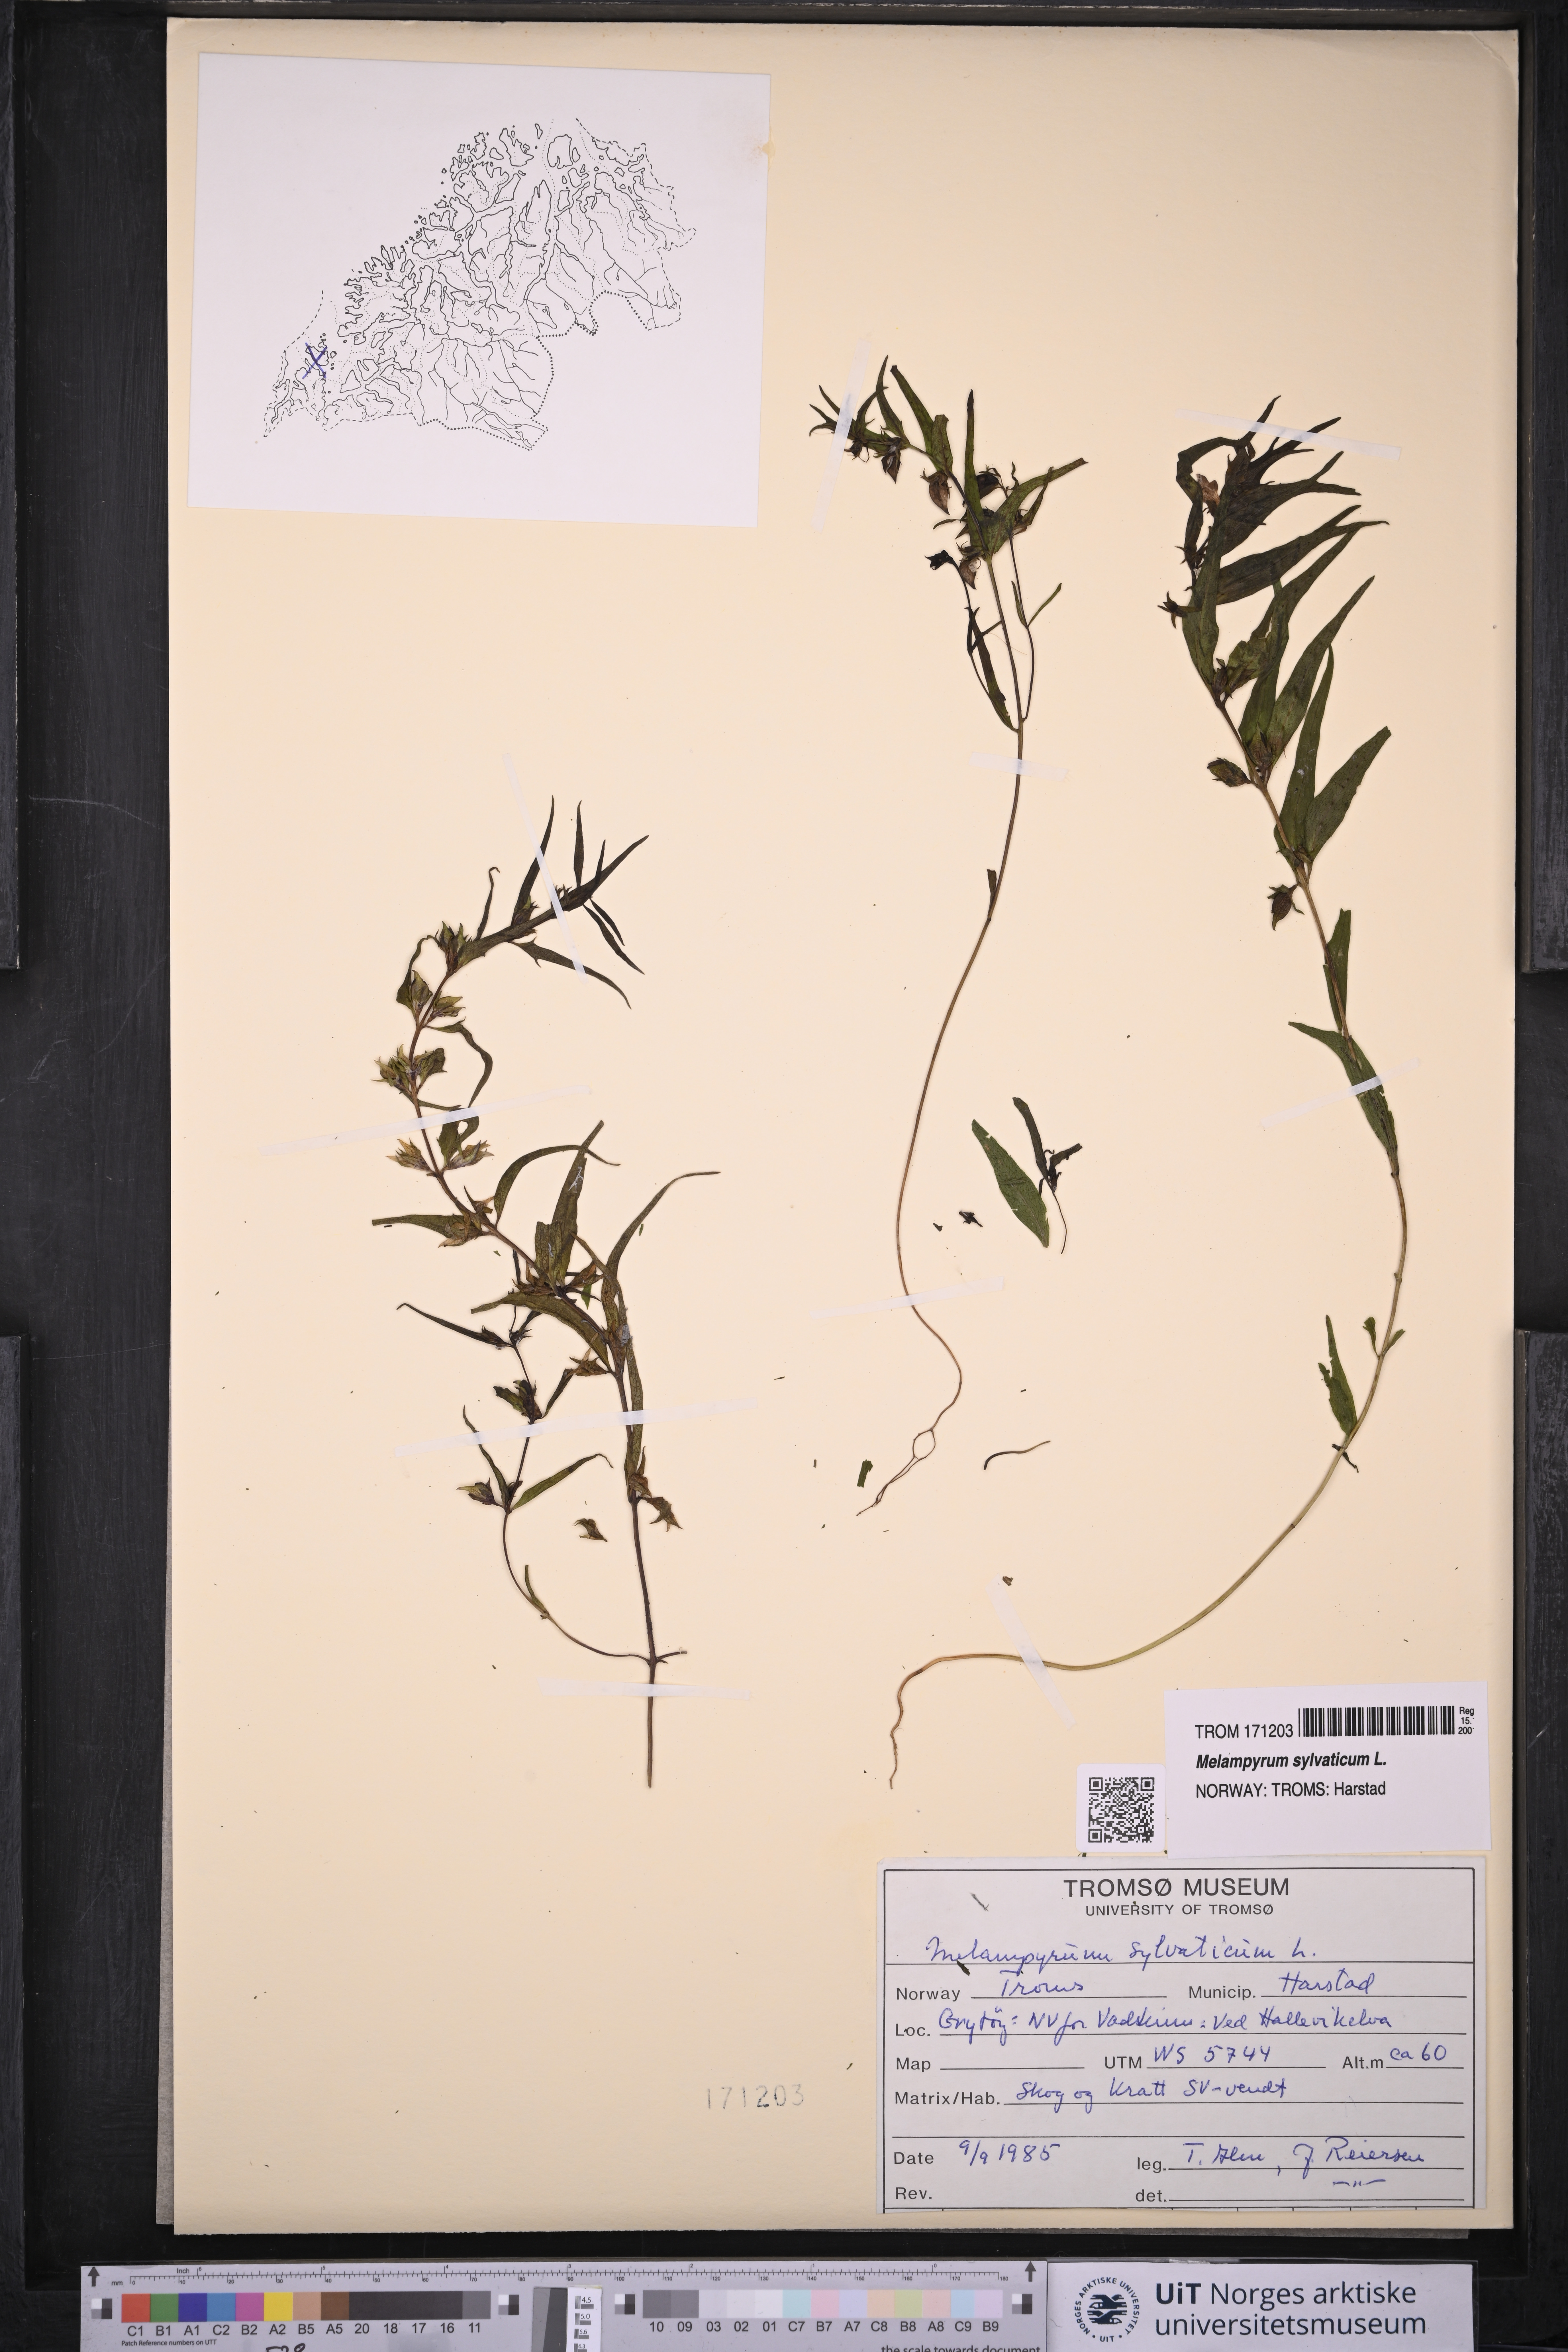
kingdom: Plantae
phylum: Tracheophyta
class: Magnoliopsida
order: Lamiales
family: Orobanchaceae
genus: Melampyrum
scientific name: Melampyrum sylvaticum
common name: Small cow-wheat
